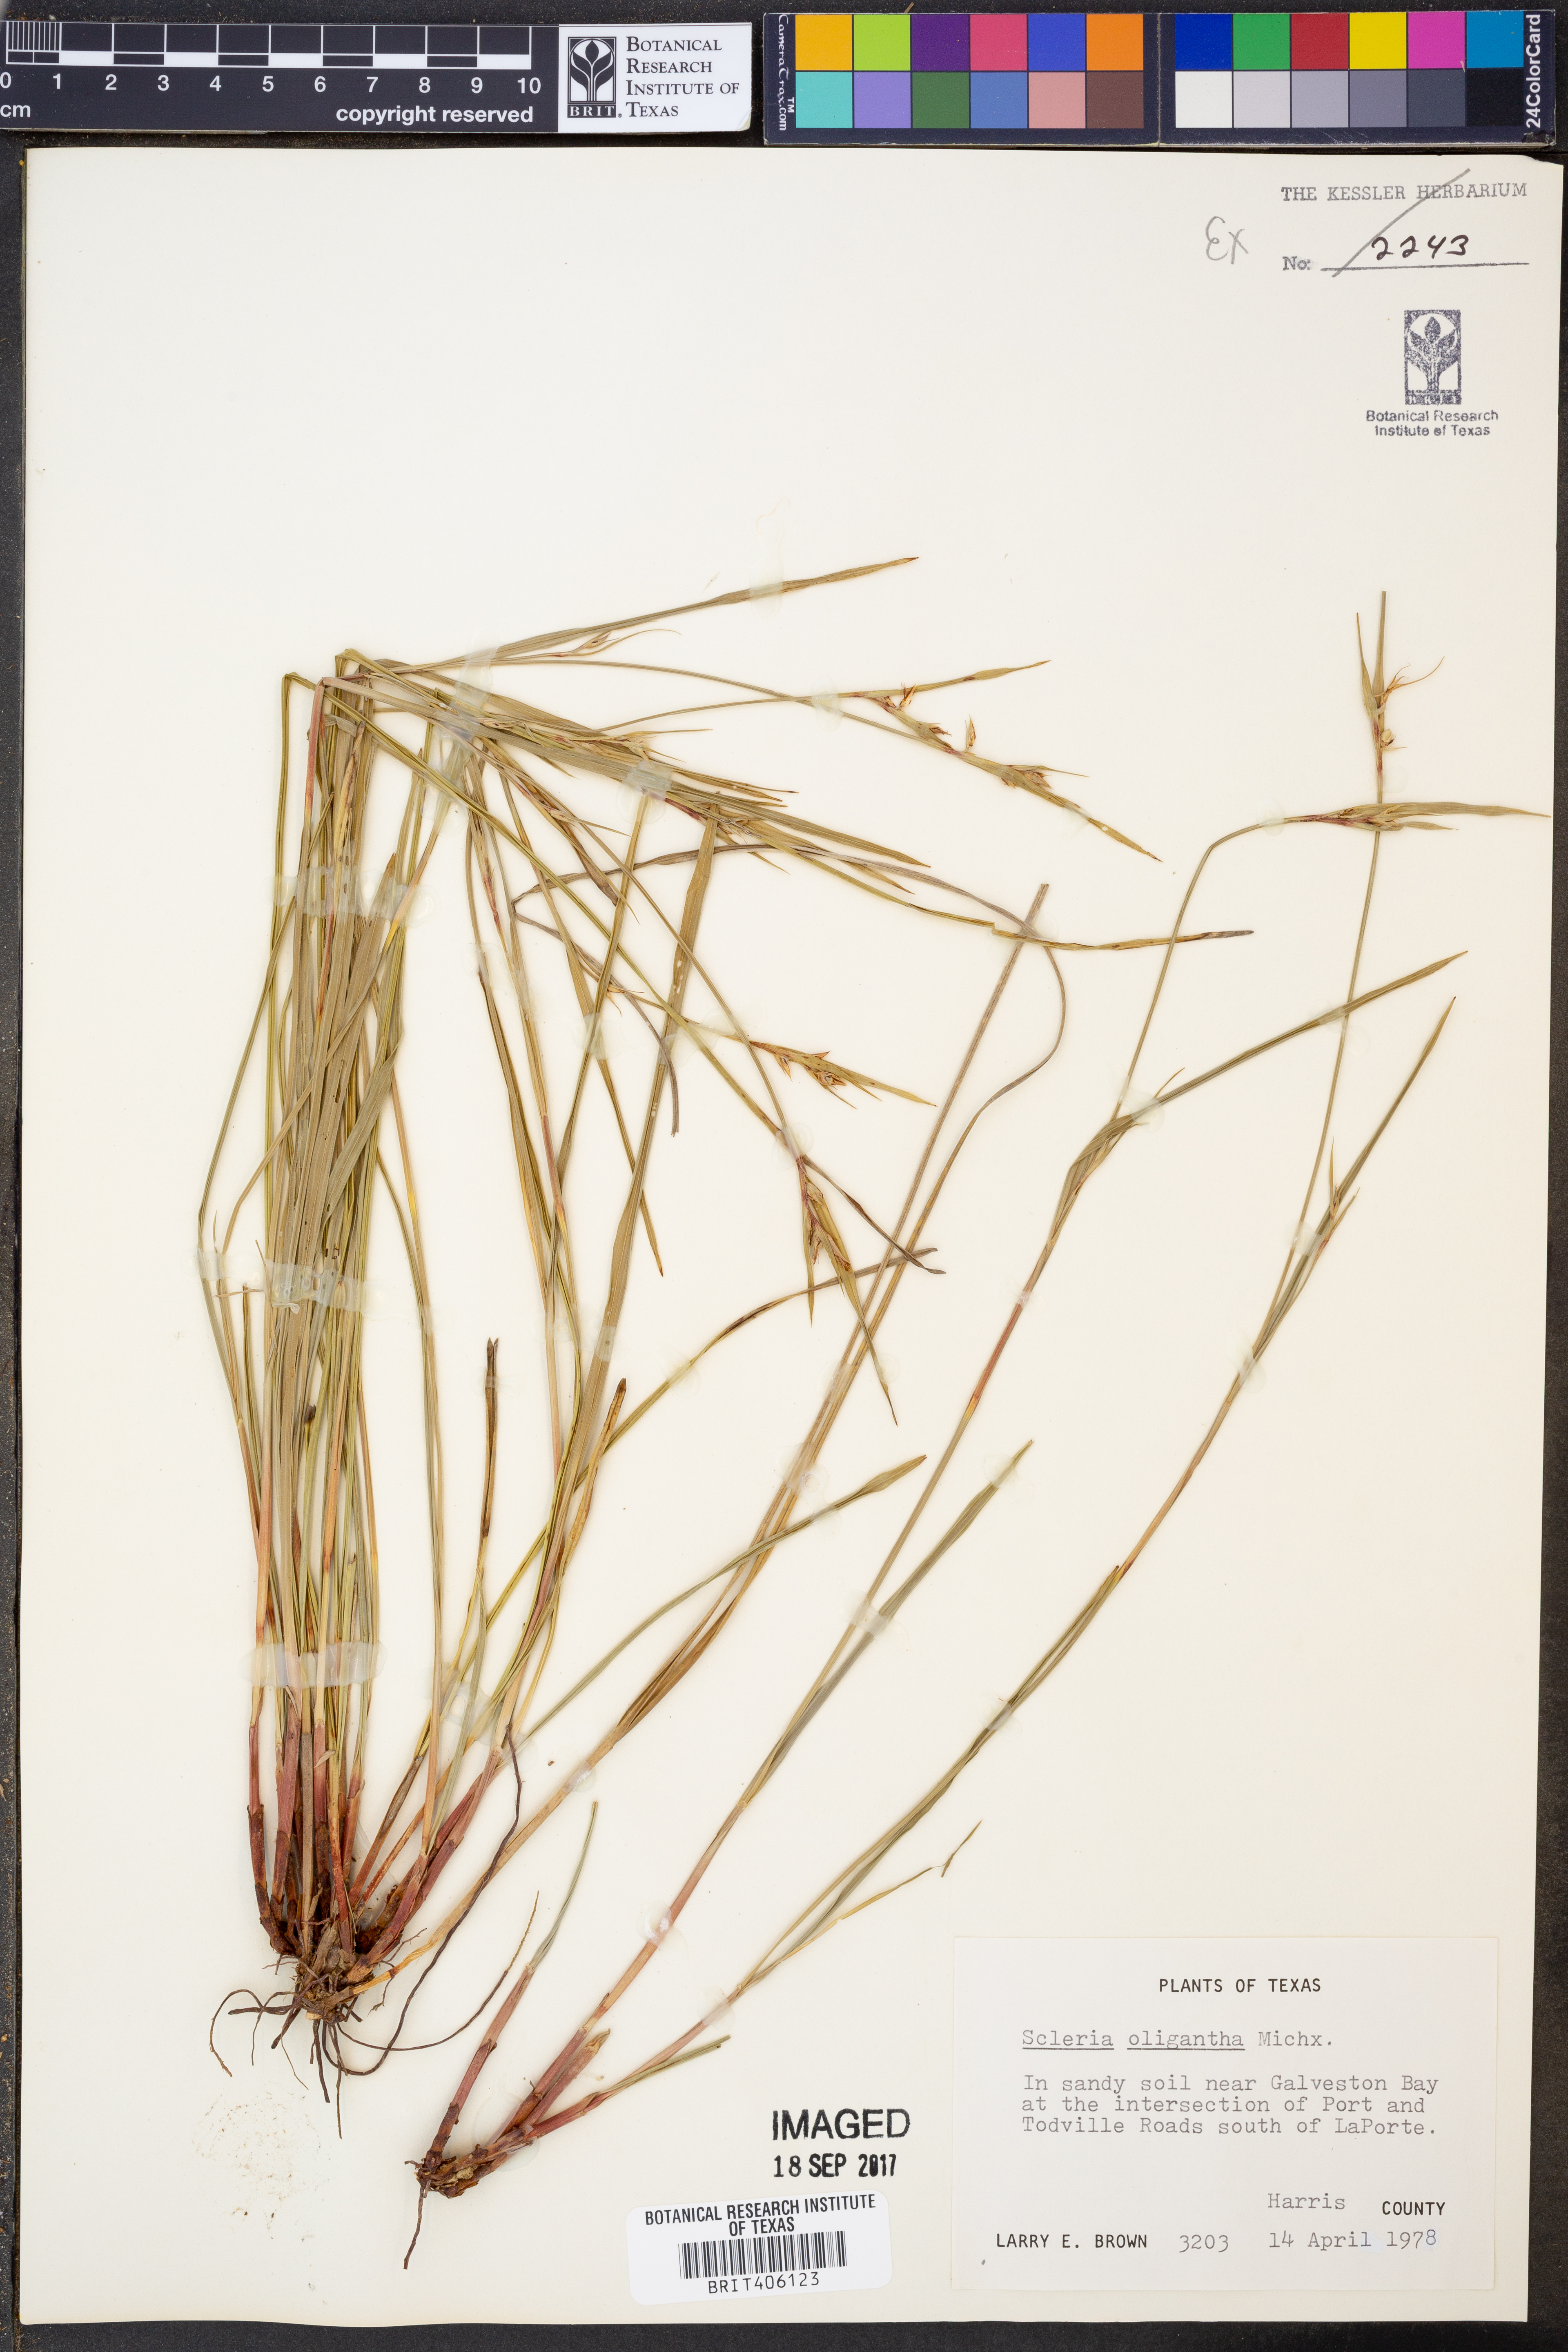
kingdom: Plantae
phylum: Tracheophyta
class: Liliopsida
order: Poales
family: Cyperaceae
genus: Scleria
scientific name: Scleria oligantha
